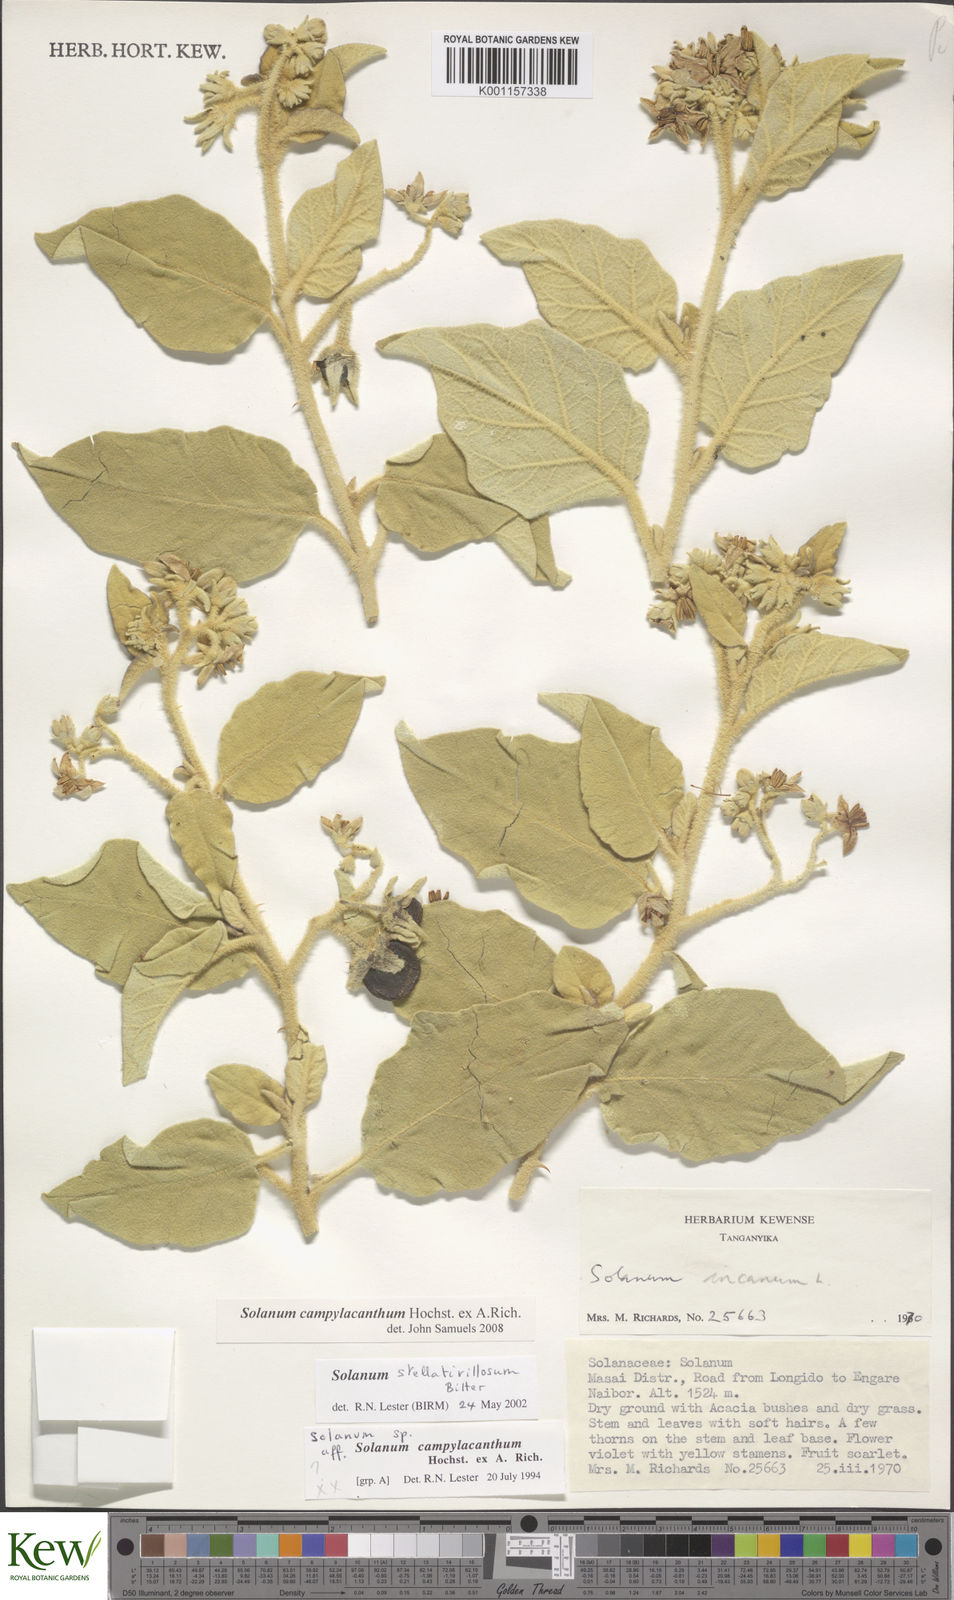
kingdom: Plantae
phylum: Tracheophyta
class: Magnoliopsida
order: Solanales
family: Solanaceae
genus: Solanum
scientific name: Solanum campylacanthum
